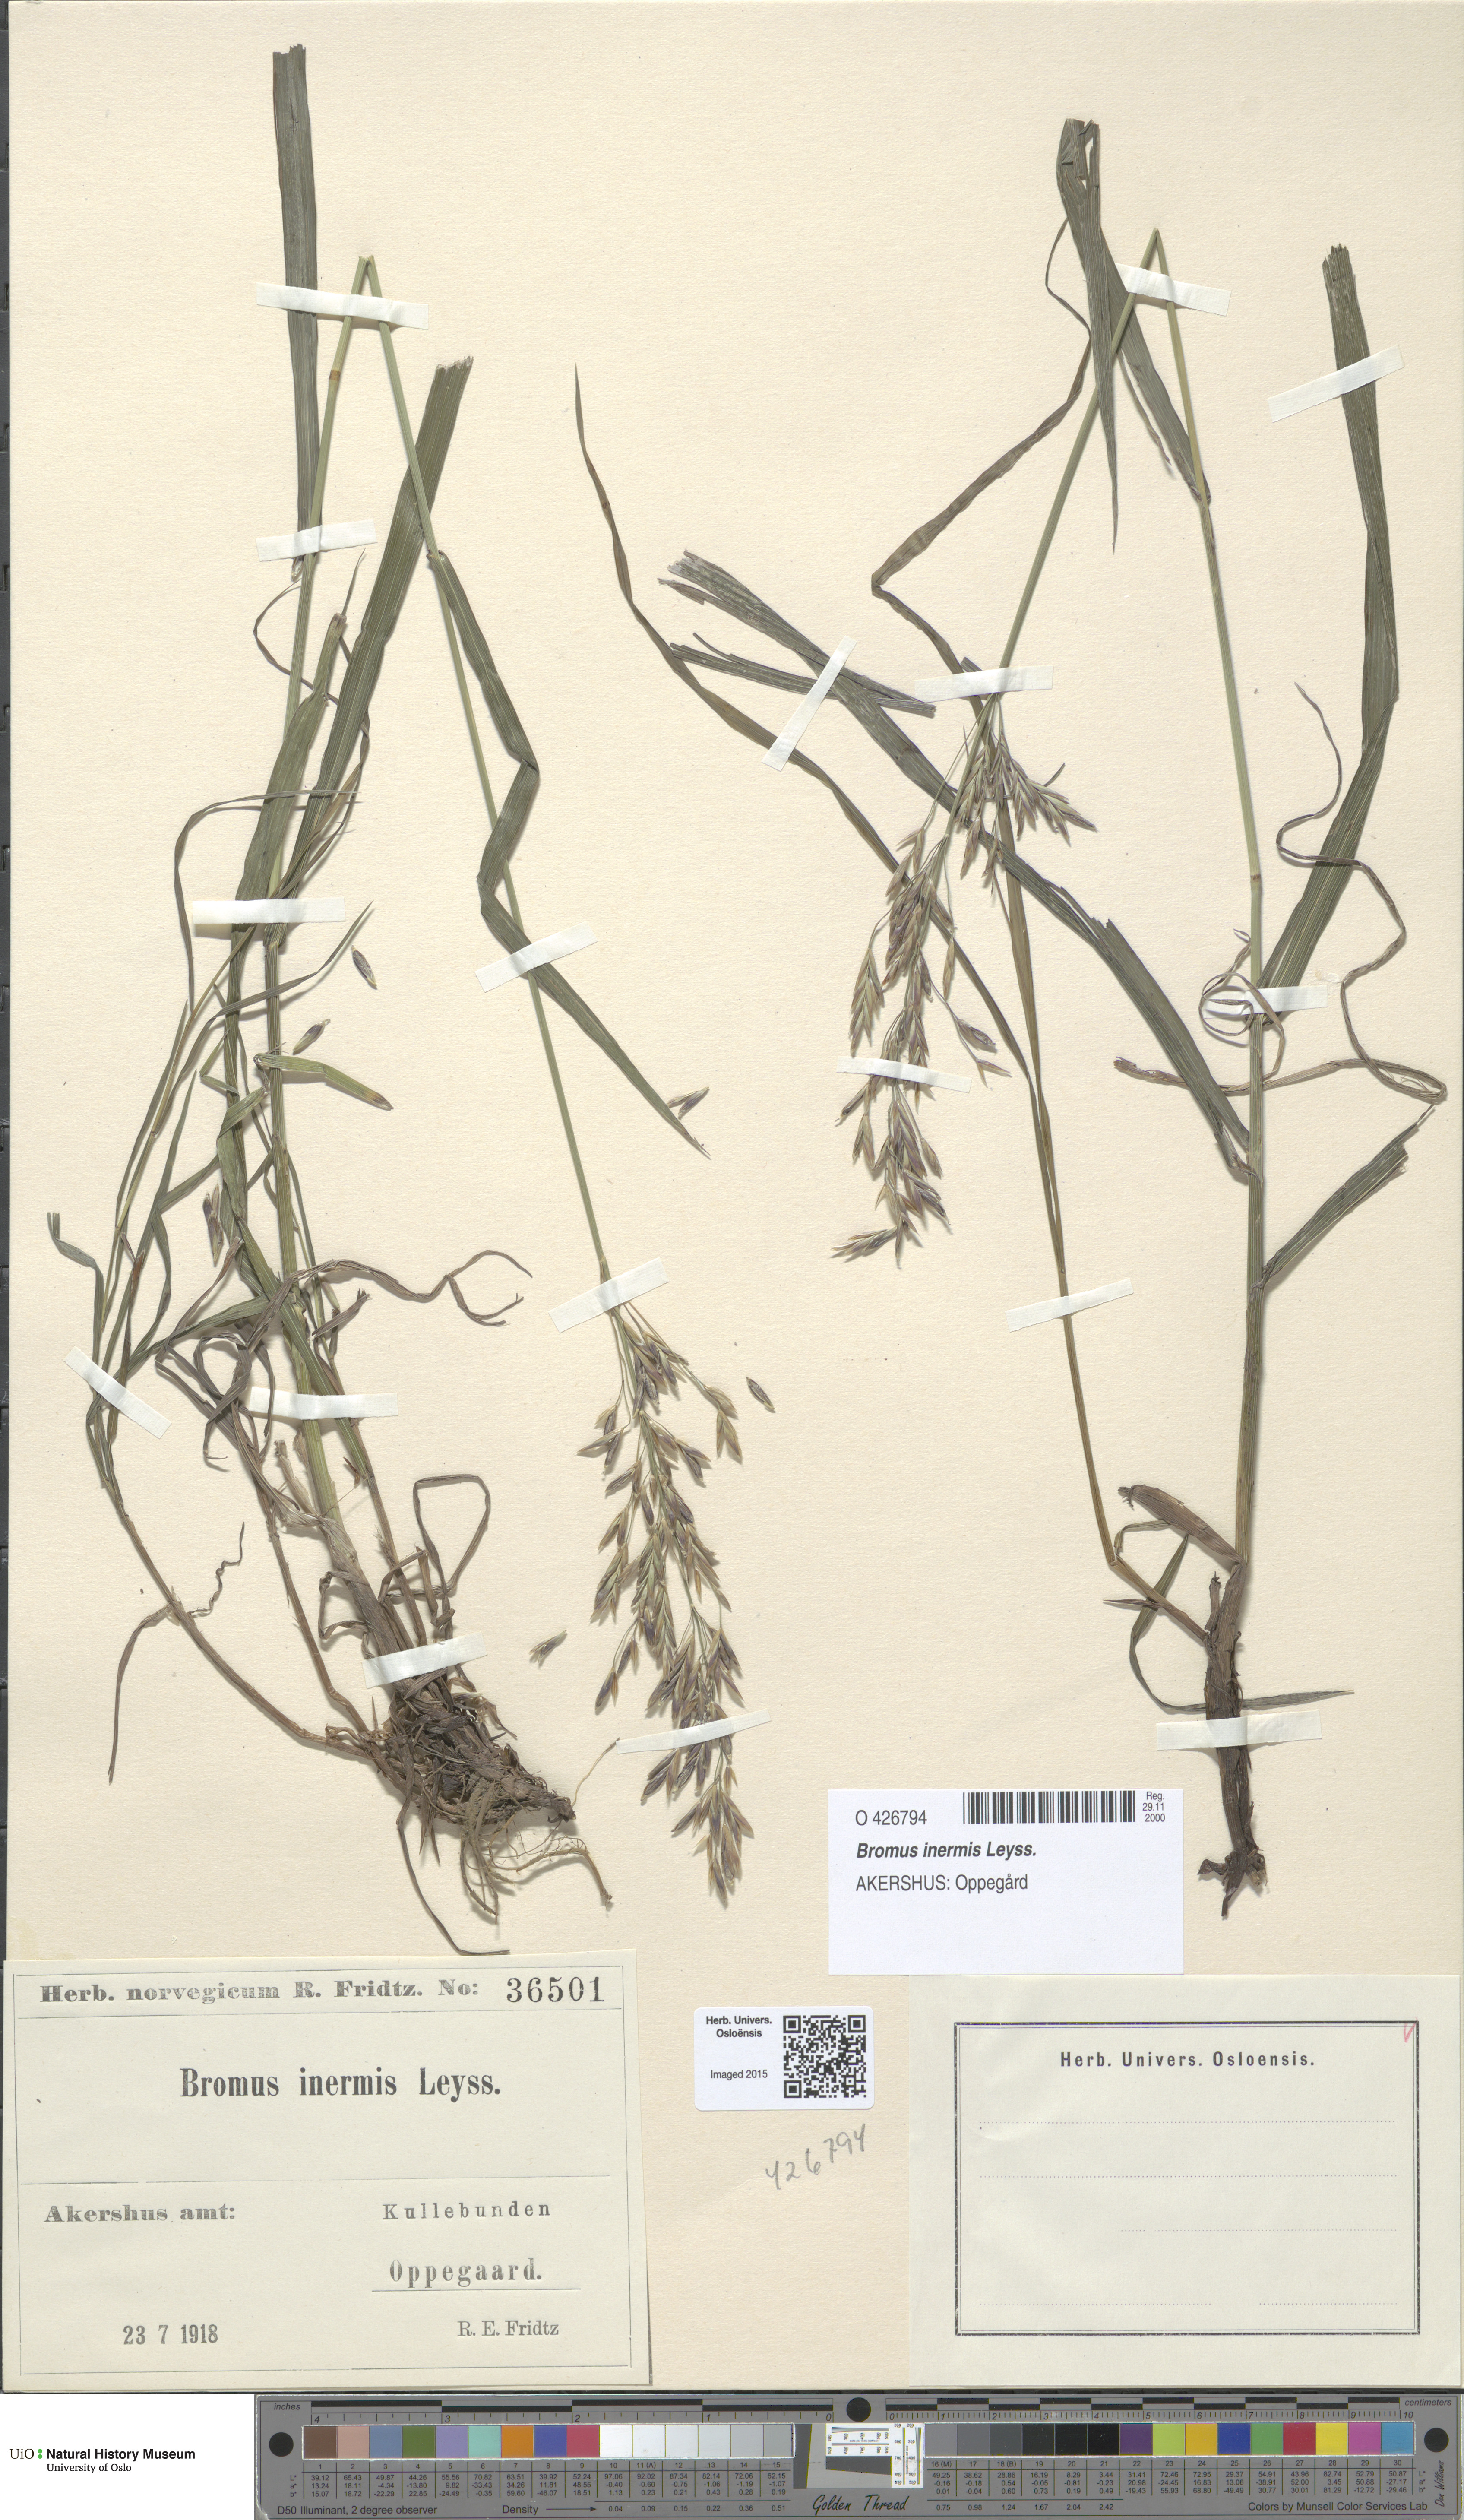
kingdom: Plantae
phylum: Tracheophyta
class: Liliopsida
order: Poales
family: Poaceae
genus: Bromus
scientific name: Bromus inermis
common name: Smooth brome
